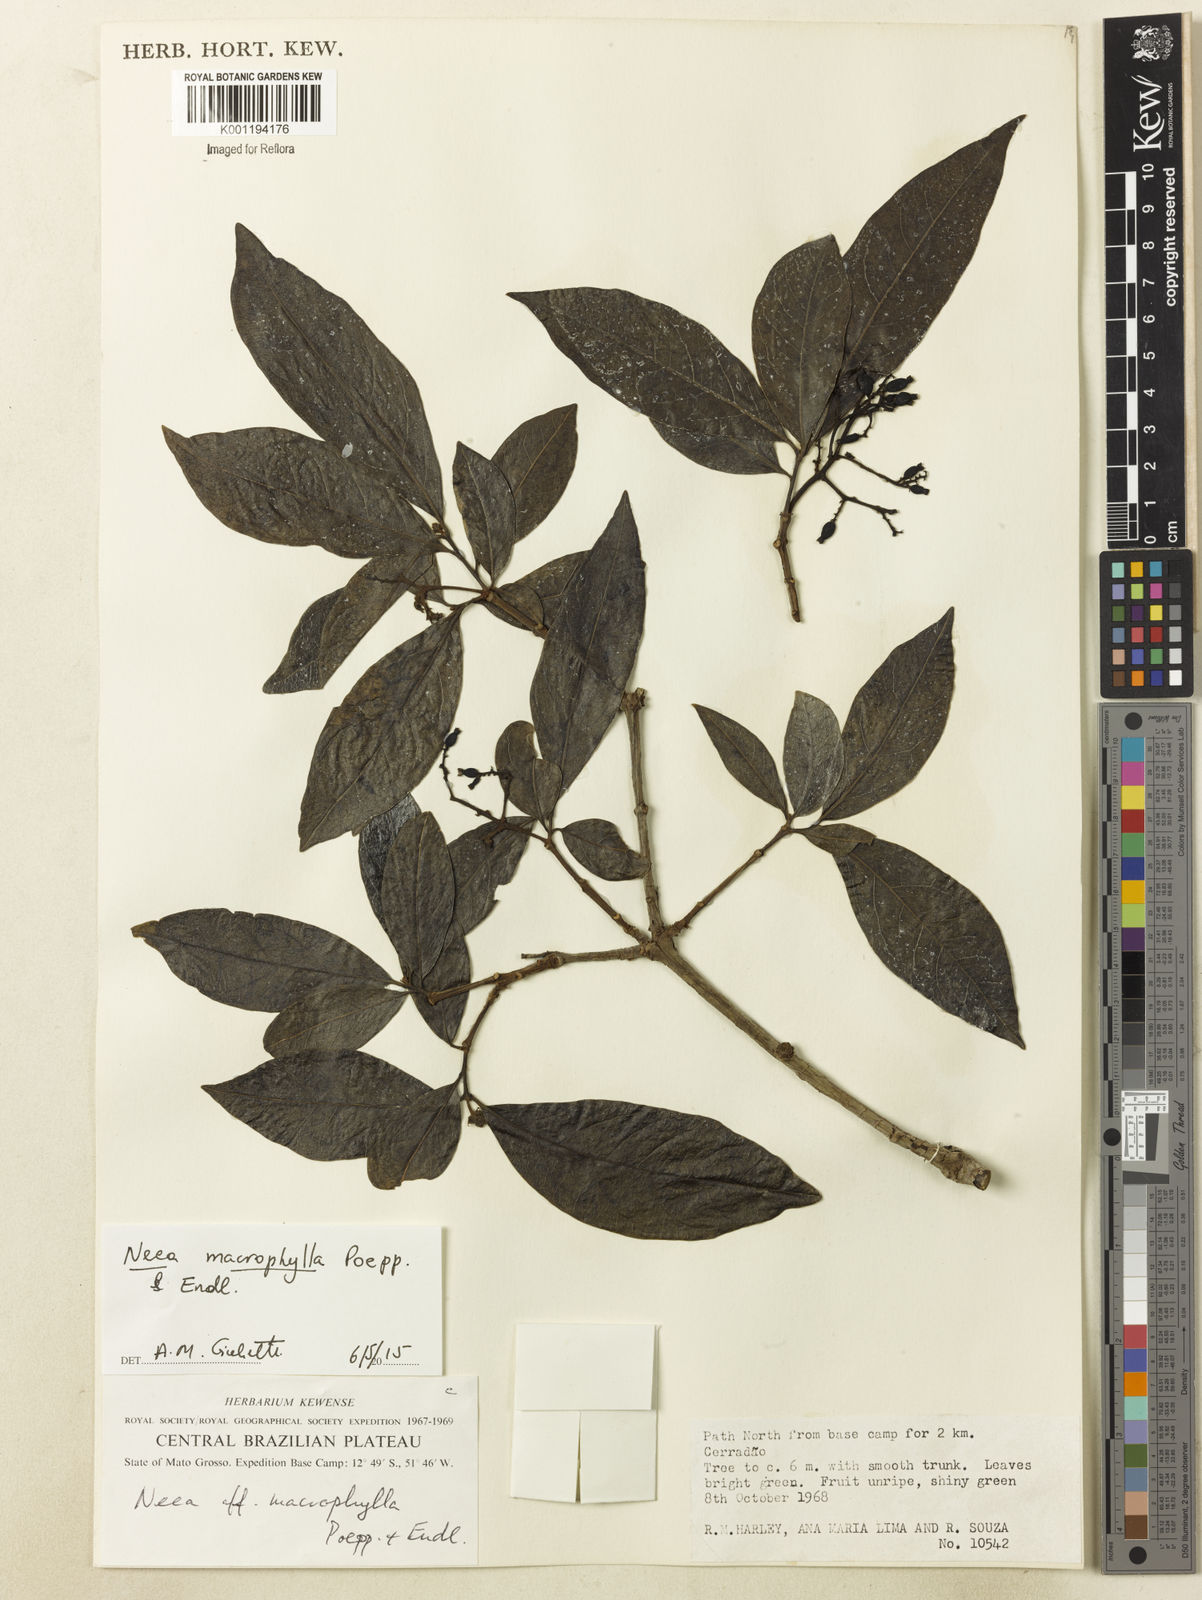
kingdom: Plantae
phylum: Tracheophyta
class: Magnoliopsida
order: Caryophyllales
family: Nyctaginaceae
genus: Neea
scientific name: Neea macrophylla
